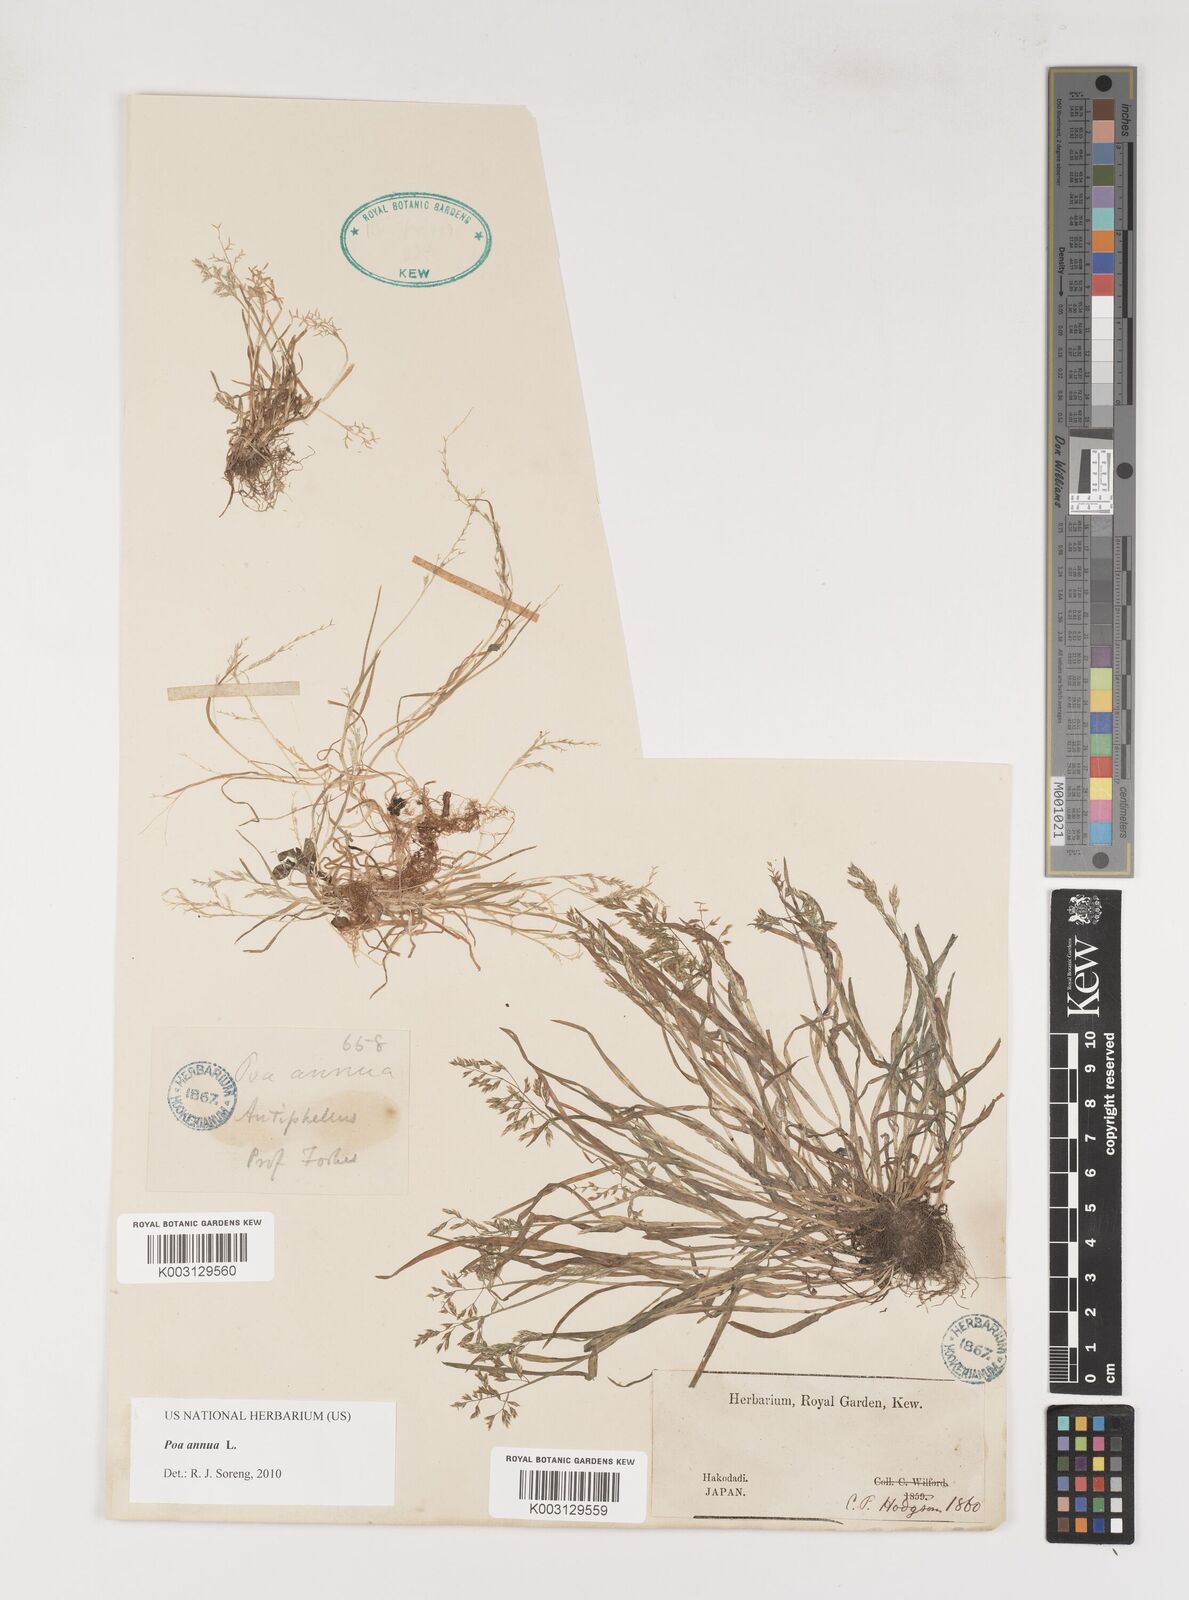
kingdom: Plantae
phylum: Tracheophyta
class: Liliopsida
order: Poales
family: Poaceae
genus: Poa
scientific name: Poa annua
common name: Annual bluegrass
